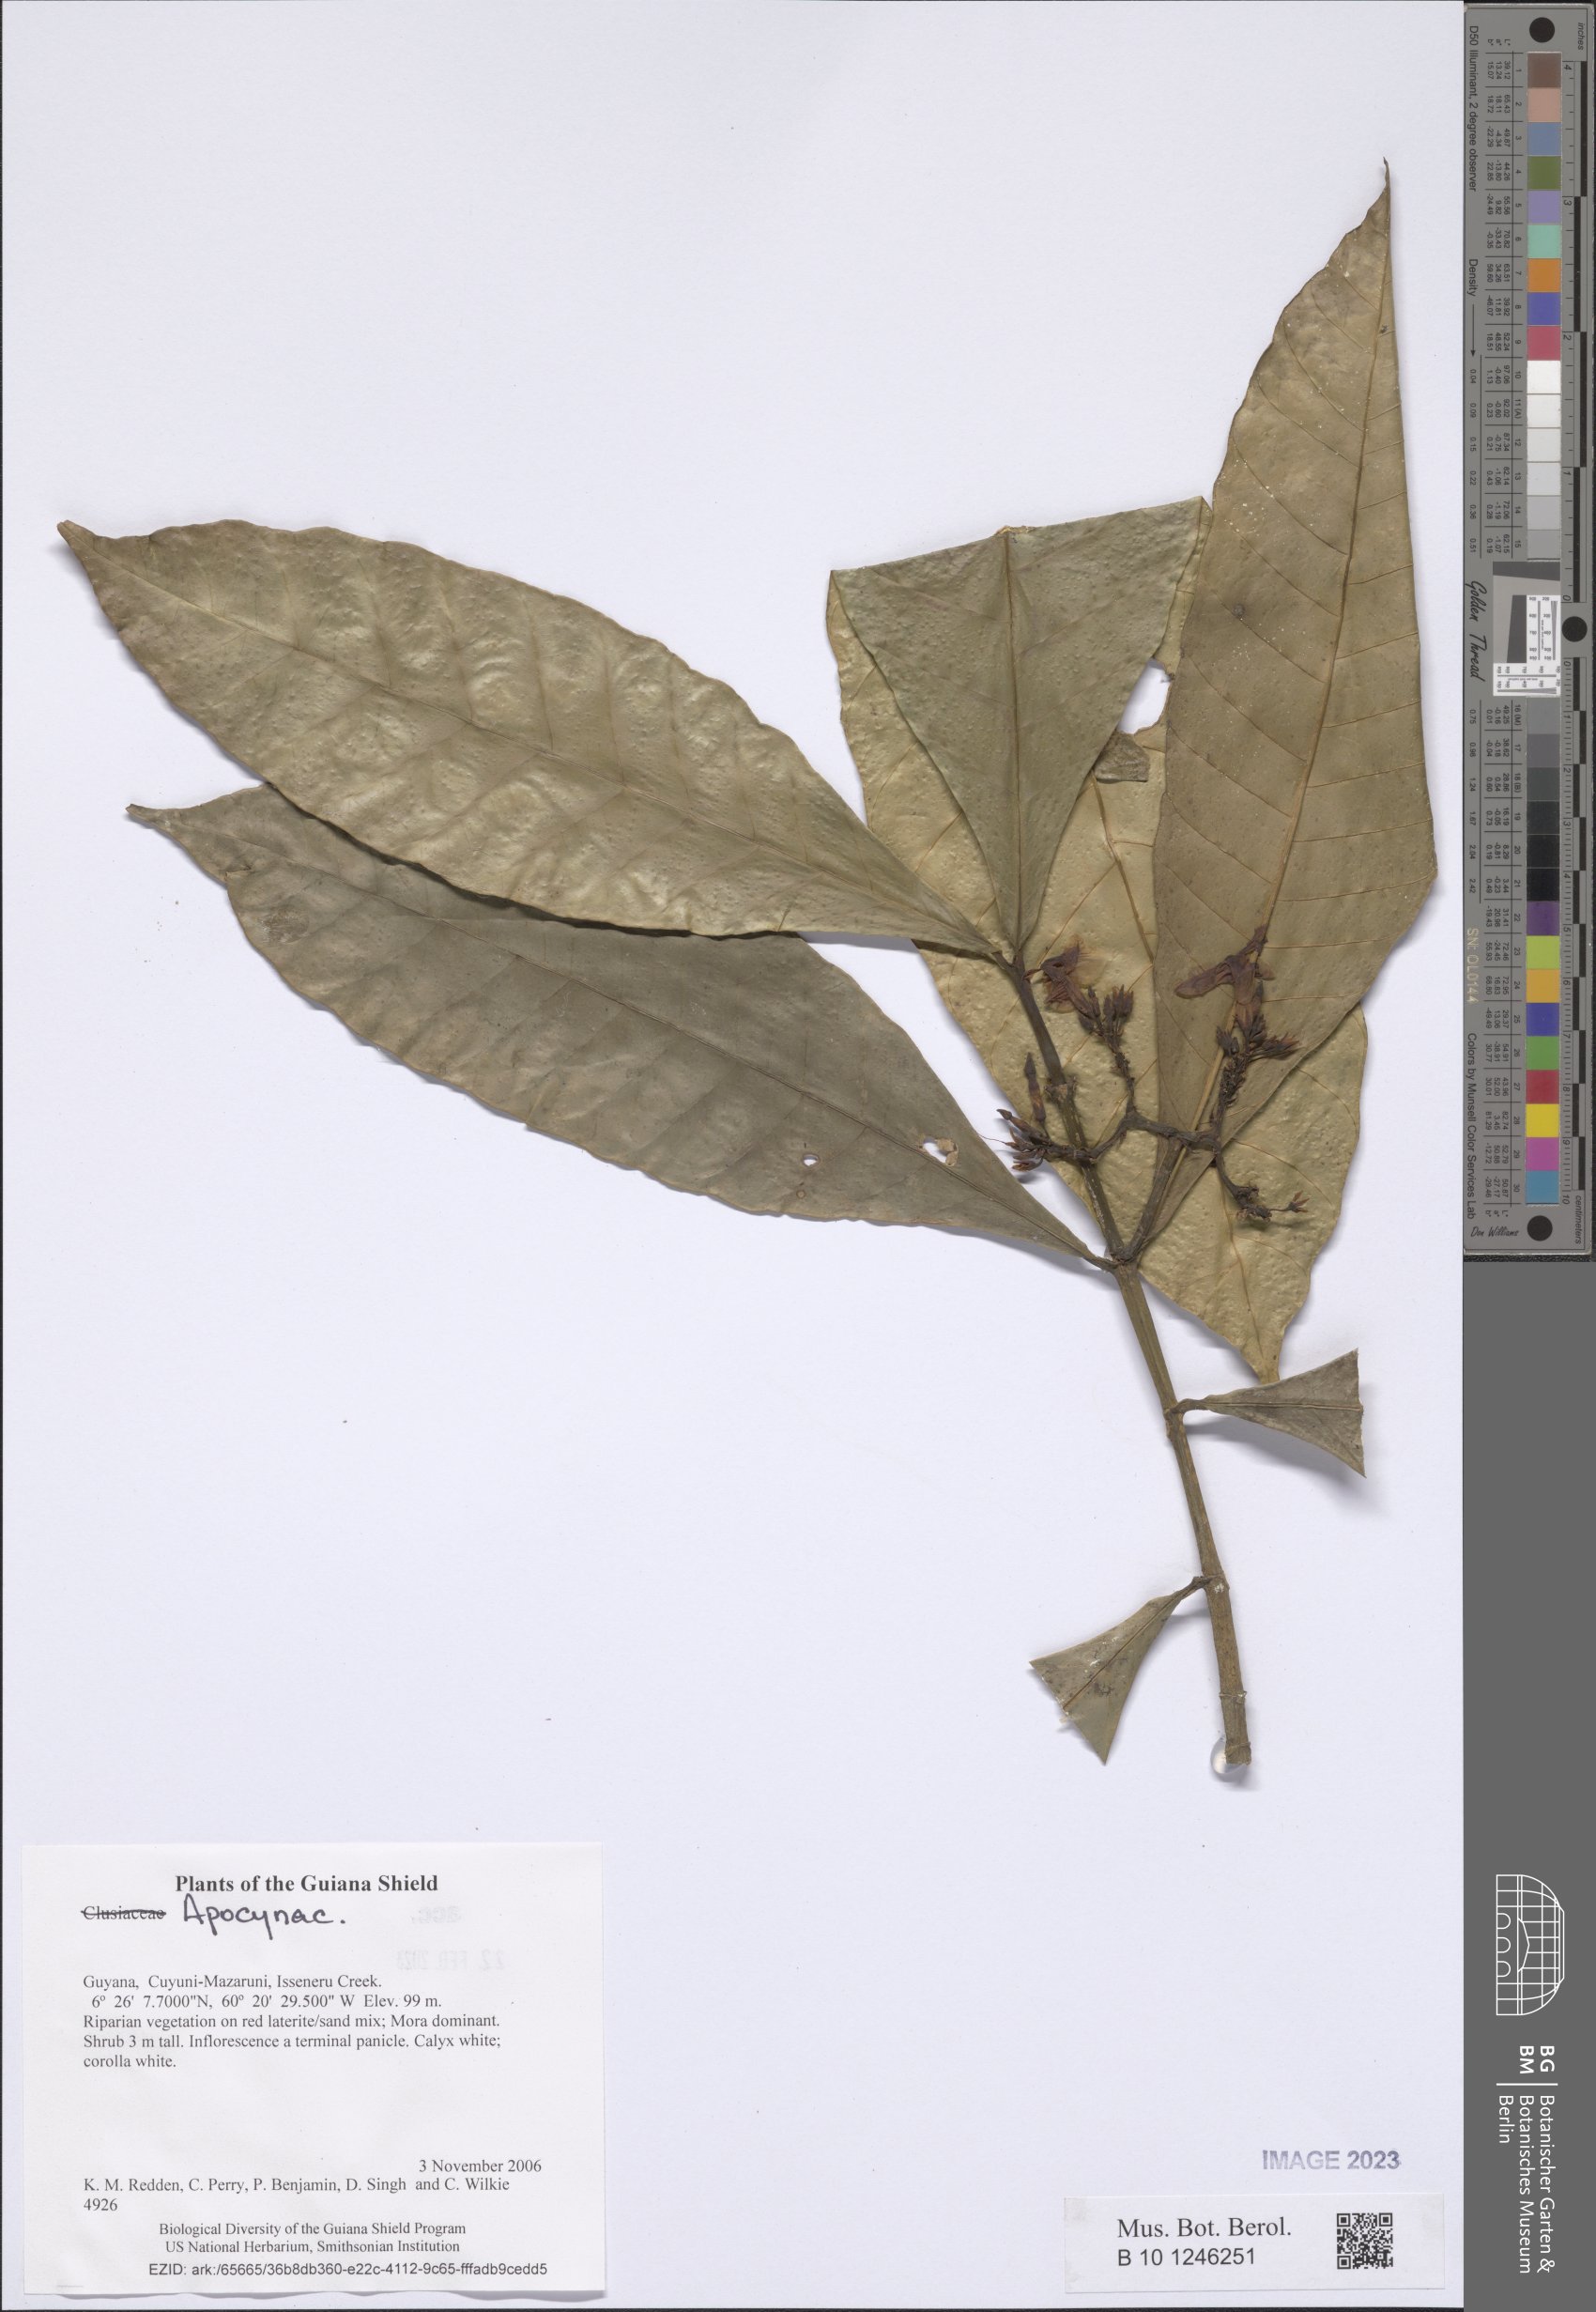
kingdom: Plantae
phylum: Tracheophyta
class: Magnoliopsida
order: Gentianales
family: Apocynaceae
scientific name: Apocynaceae
